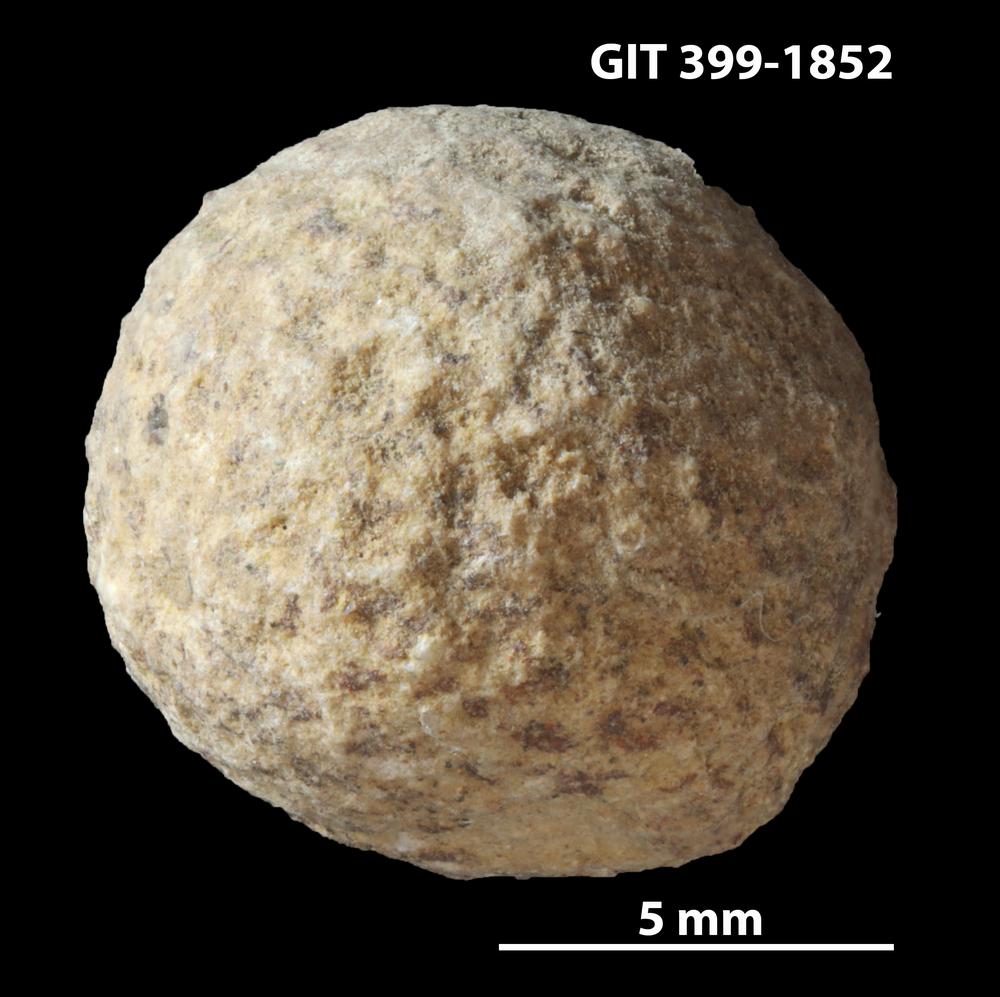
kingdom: Plantae
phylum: Chlorophyta
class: Ulvophyceae
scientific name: Ulvophyceae
